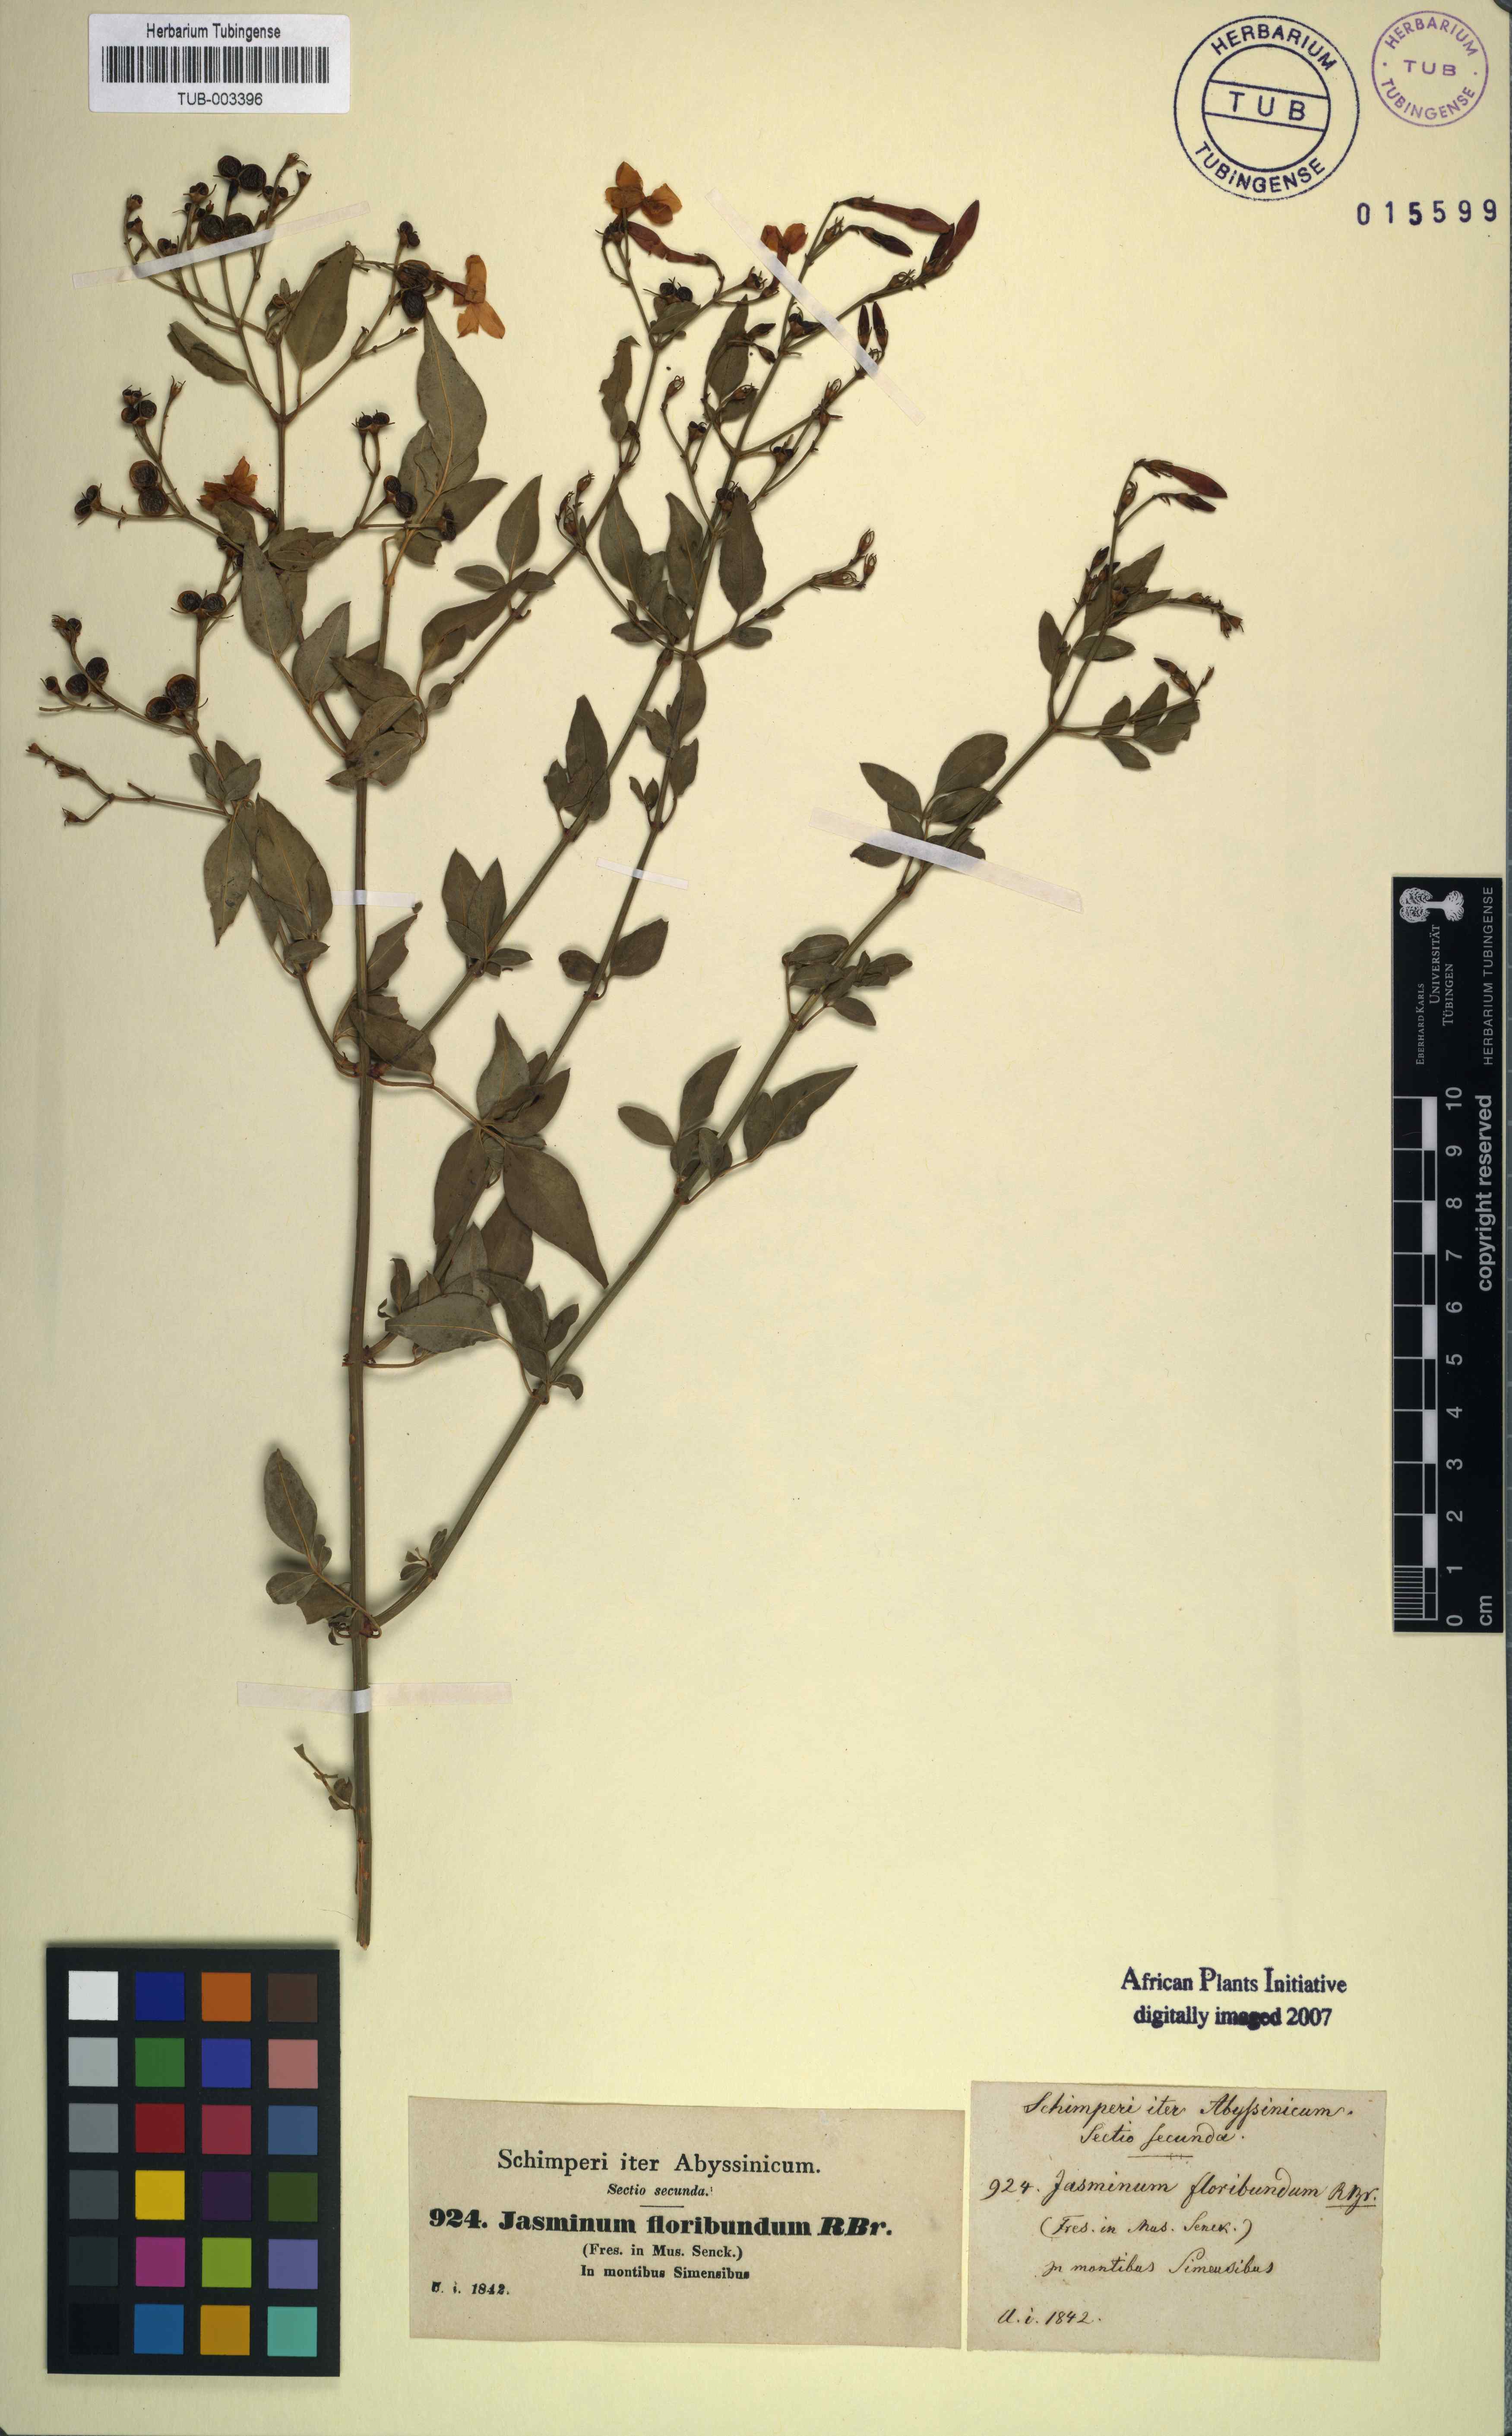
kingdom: Plantae
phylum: Tracheophyta
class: Magnoliopsida
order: Lamiales
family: Oleaceae
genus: Jasminum
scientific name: Jasminum grandiflorum
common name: Catalonian jasmine
